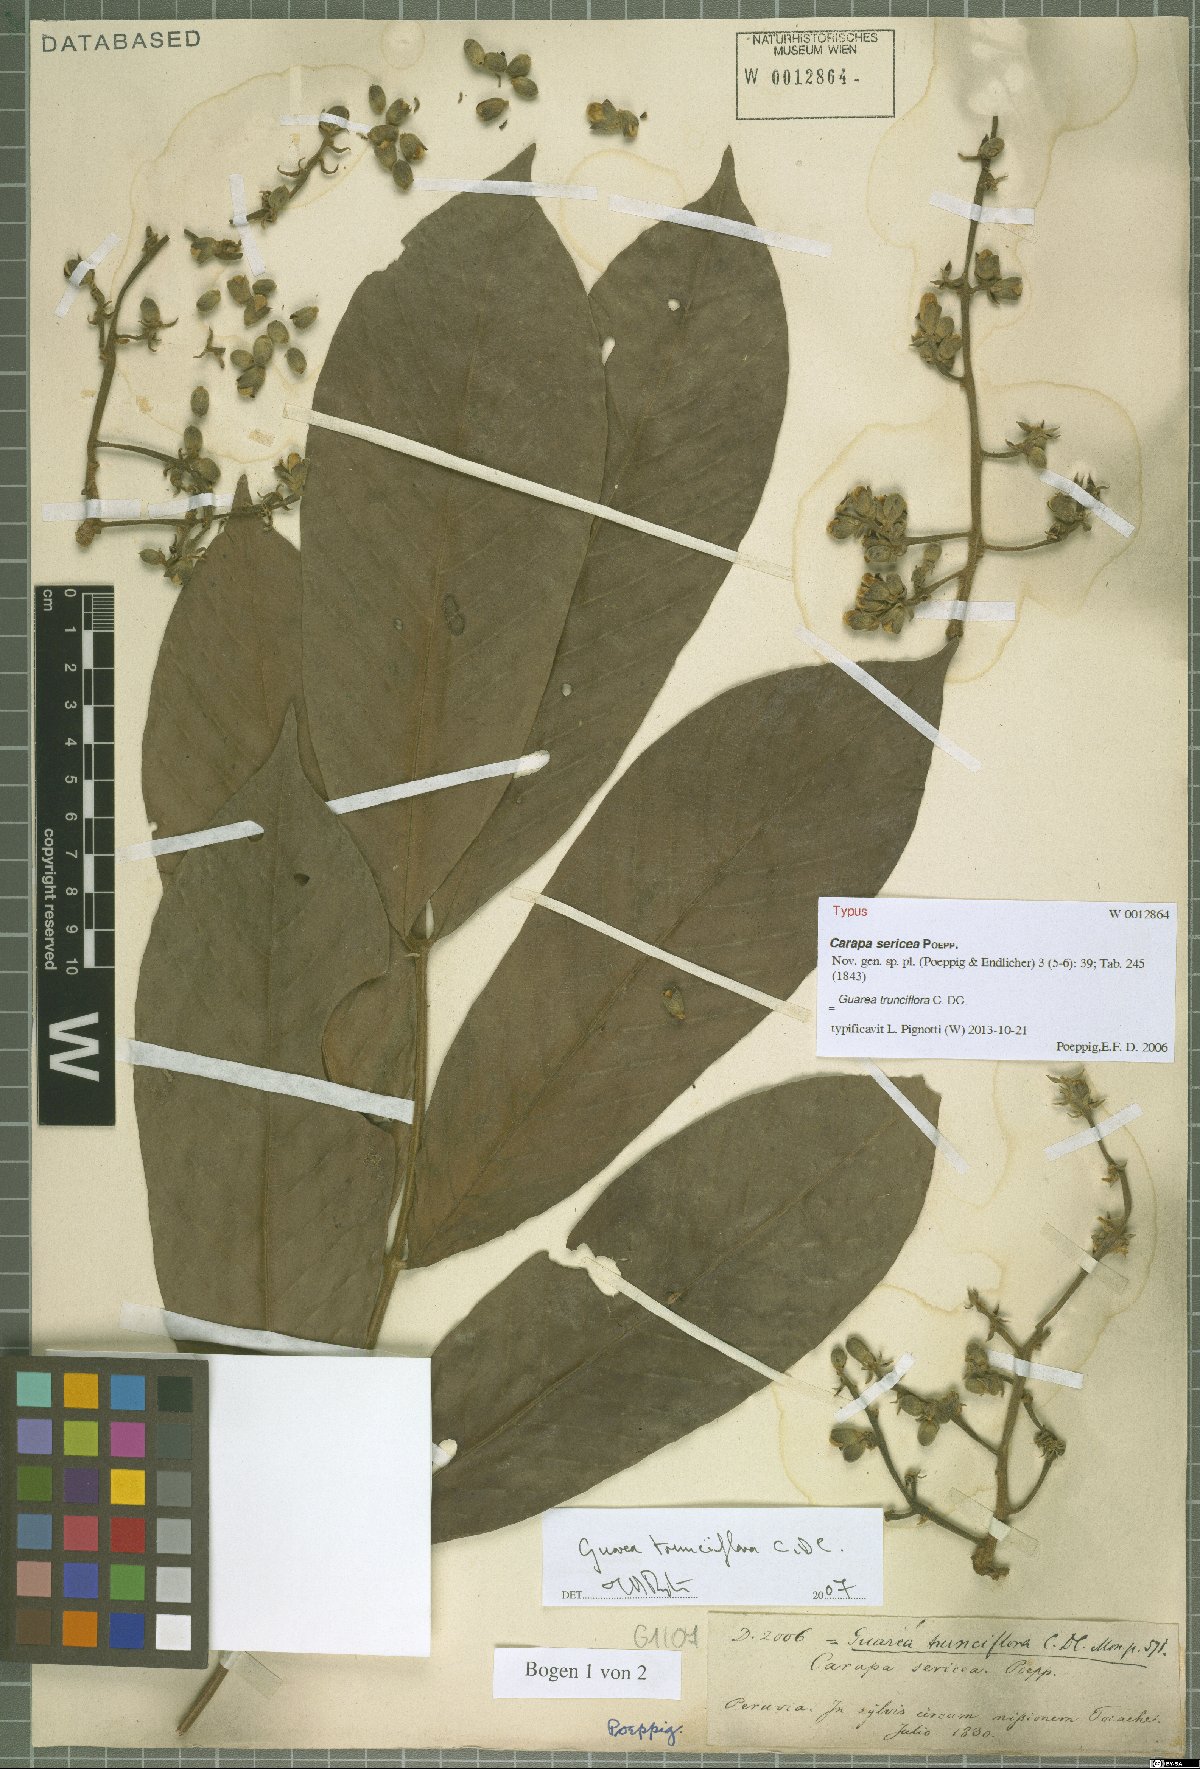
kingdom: Plantae
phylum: Tracheophyta
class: Magnoliopsida
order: Sapindales
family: Meliaceae
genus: Guarea
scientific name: Guarea trunciflora
